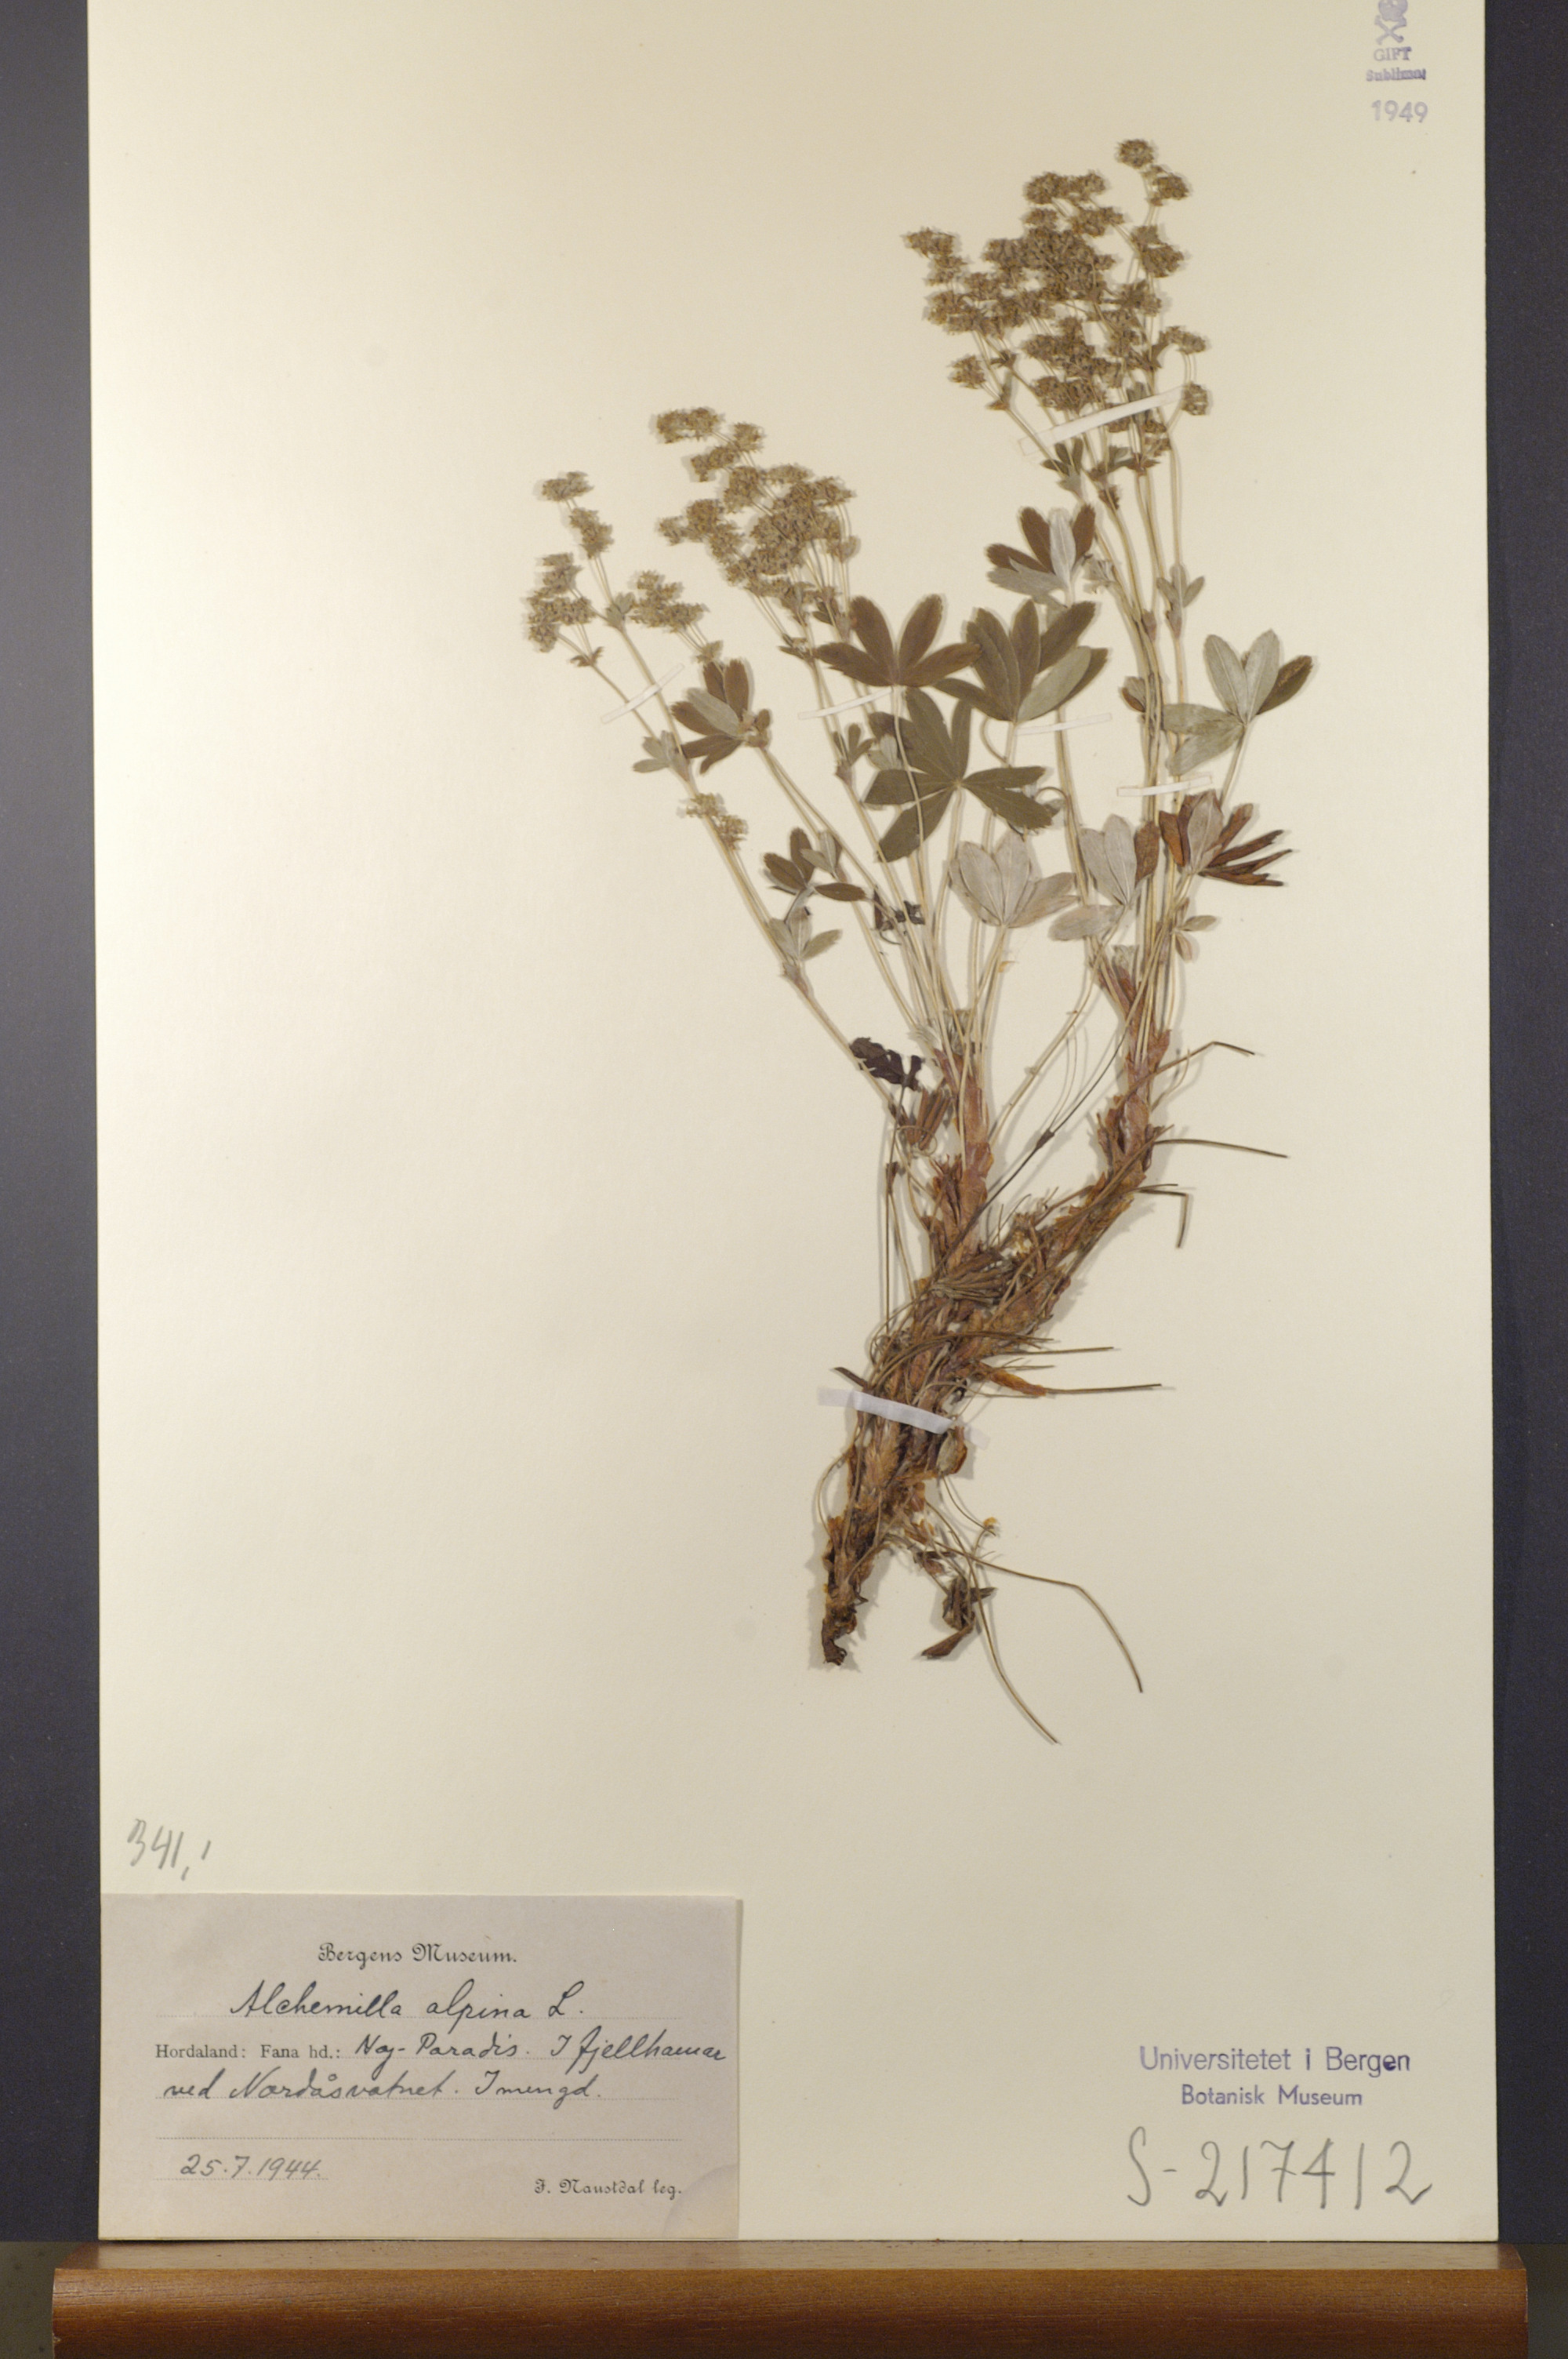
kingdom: Plantae
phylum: Tracheophyta
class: Magnoliopsida
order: Rosales
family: Rosaceae
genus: Alchemilla
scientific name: Alchemilla alpina
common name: Alpine lady's-mantle
